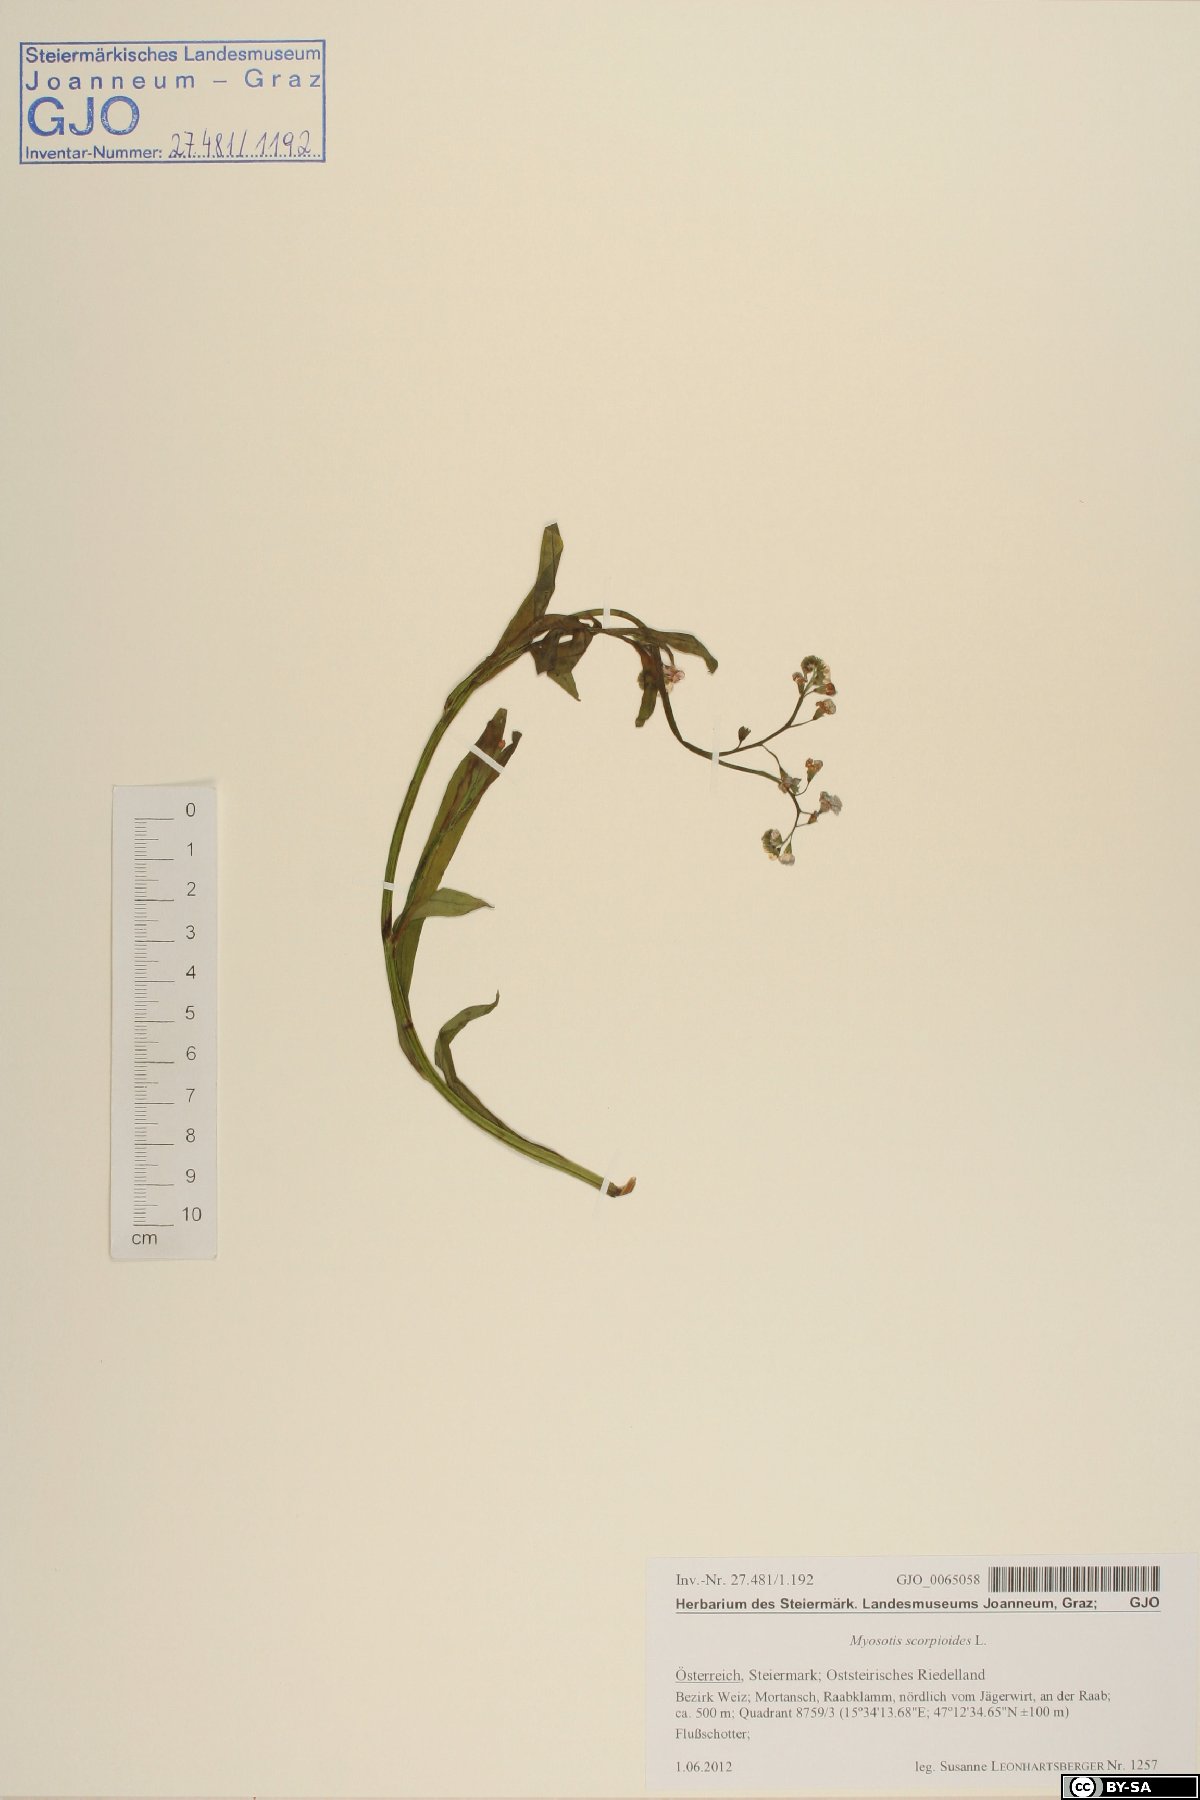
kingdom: Plantae
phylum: Tracheophyta
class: Magnoliopsida
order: Boraginales
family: Boraginaceae
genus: Myosotis
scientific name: Myosotis scorpioides
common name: Water forget-me-not
